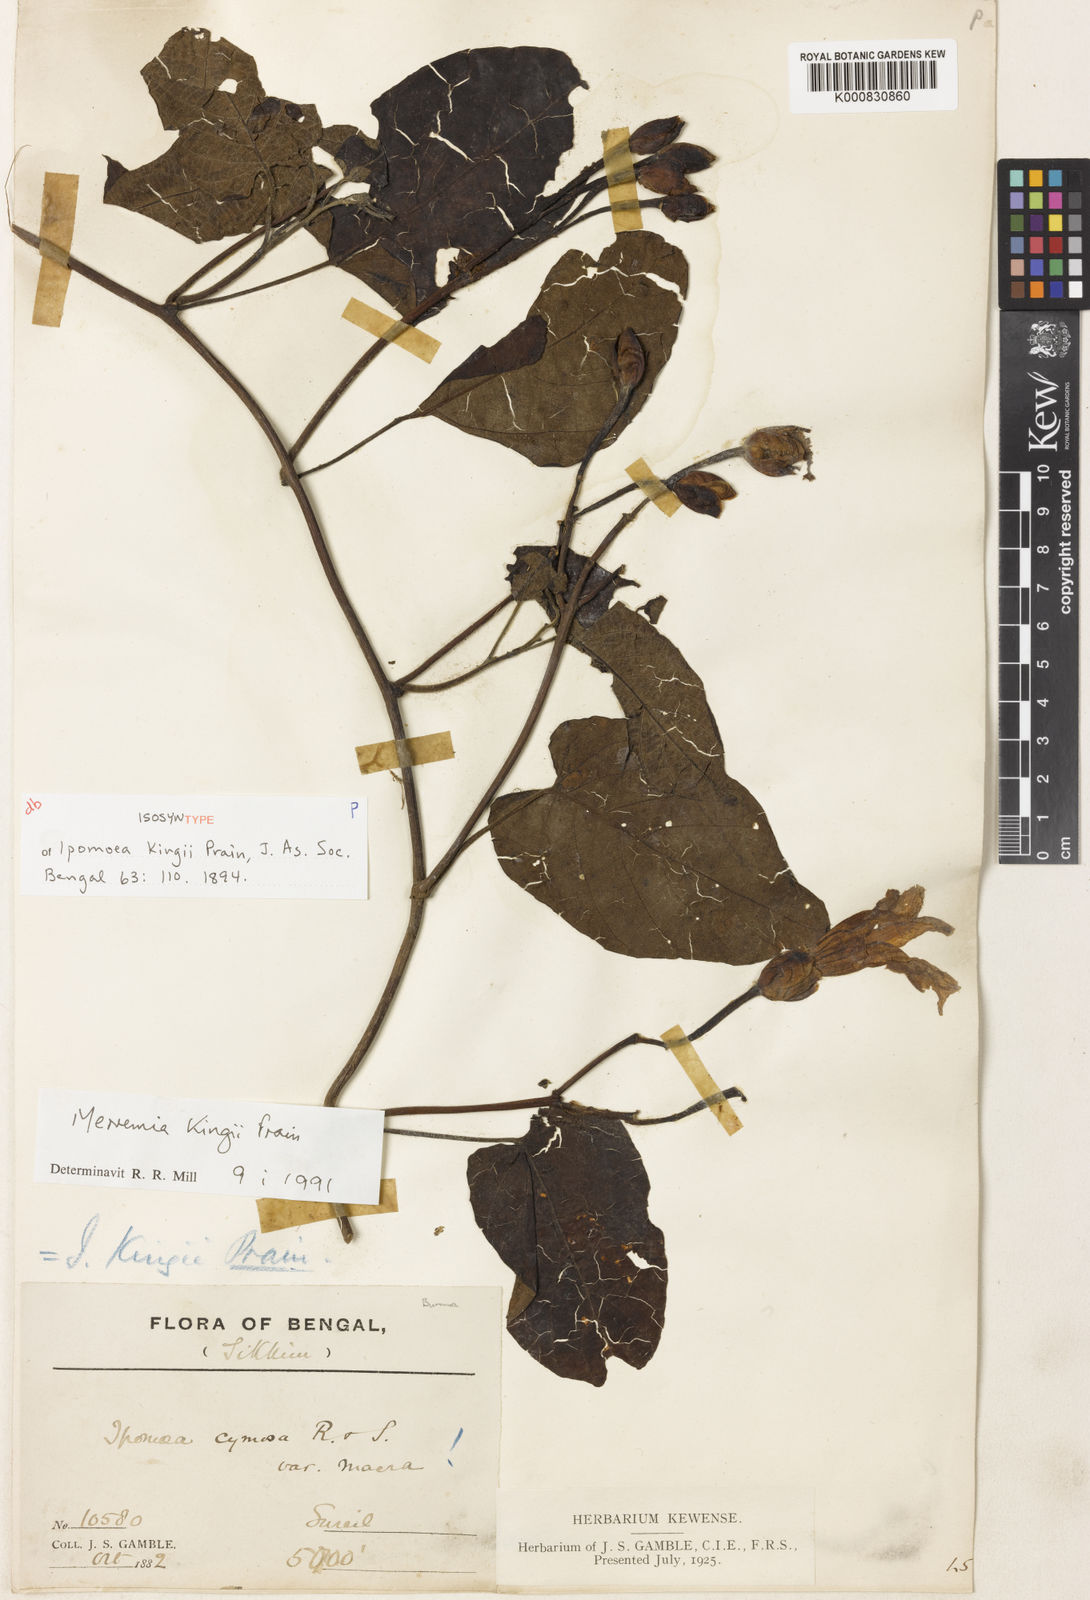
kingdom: Plantae
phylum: Tracheophyta
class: Magnoliopsida
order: Solanales
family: Convolvulaceae
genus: Camonea
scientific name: Camonea
